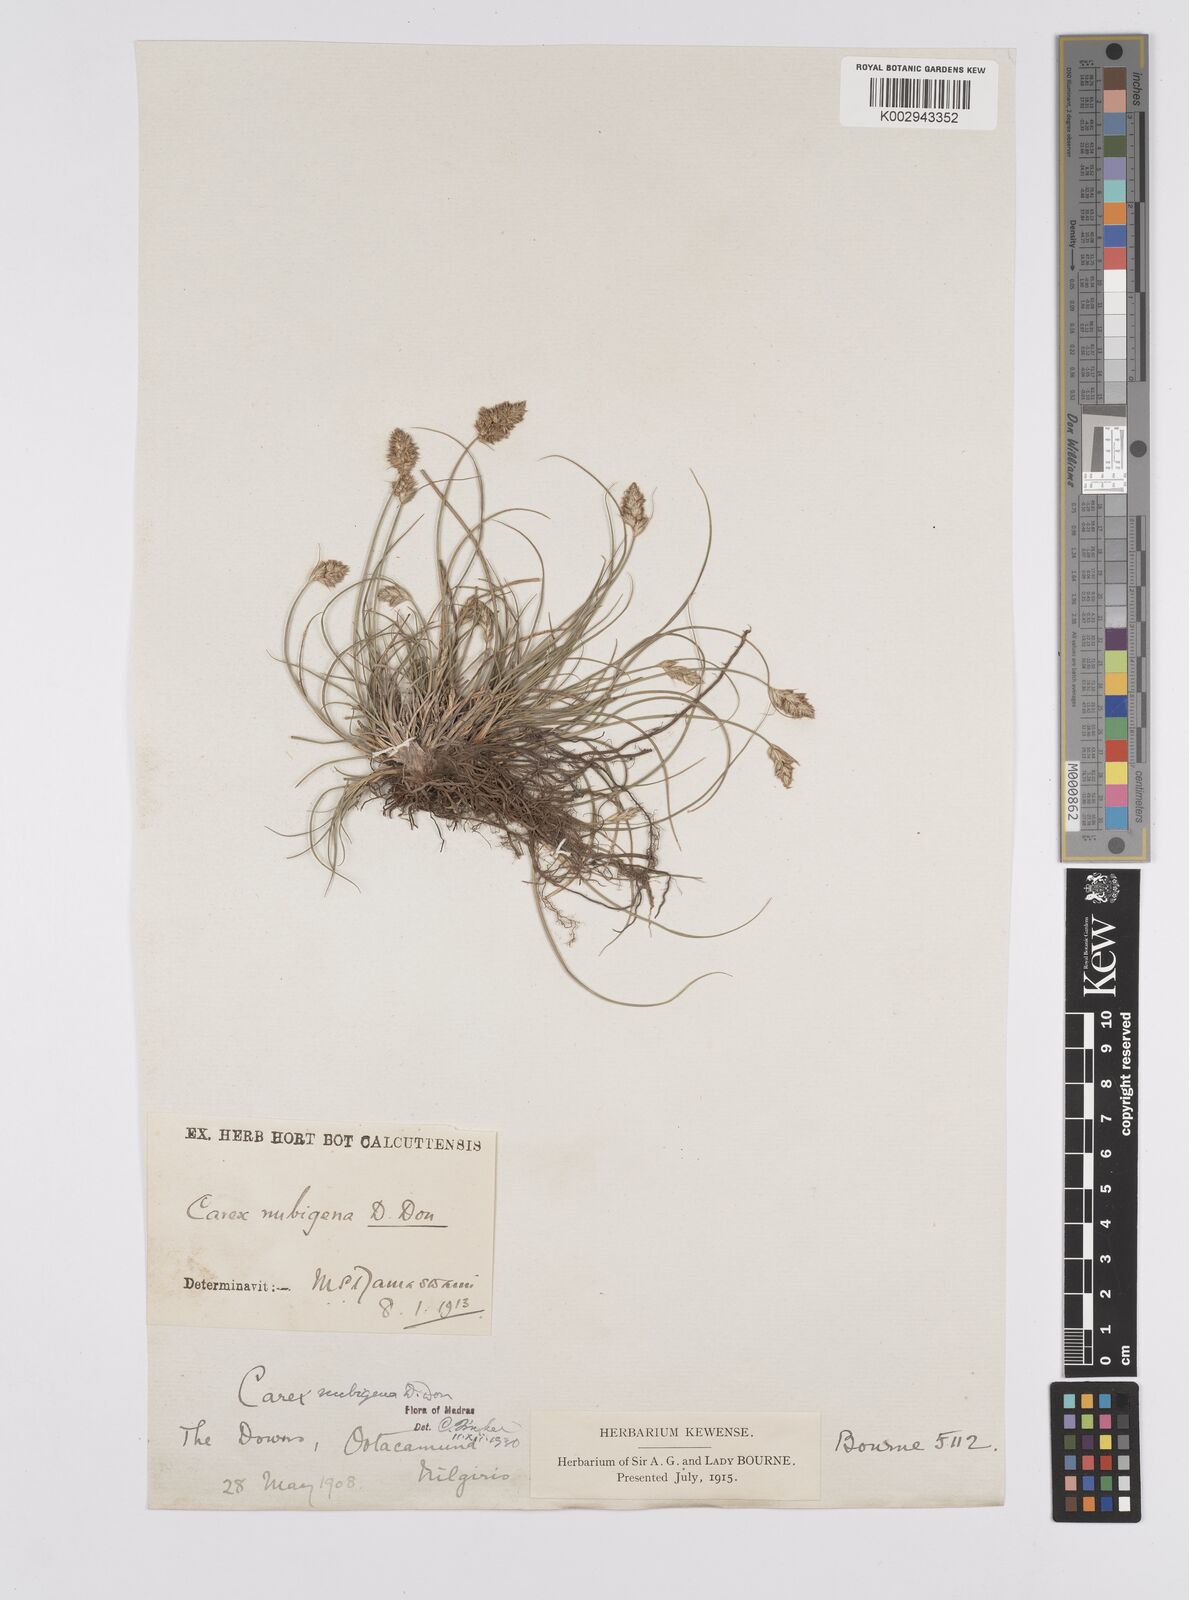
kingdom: Plantae
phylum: Tracheophyta
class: Liliopsida
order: Poales
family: Cyperaceae
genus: Carex
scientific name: Carex nubigena
